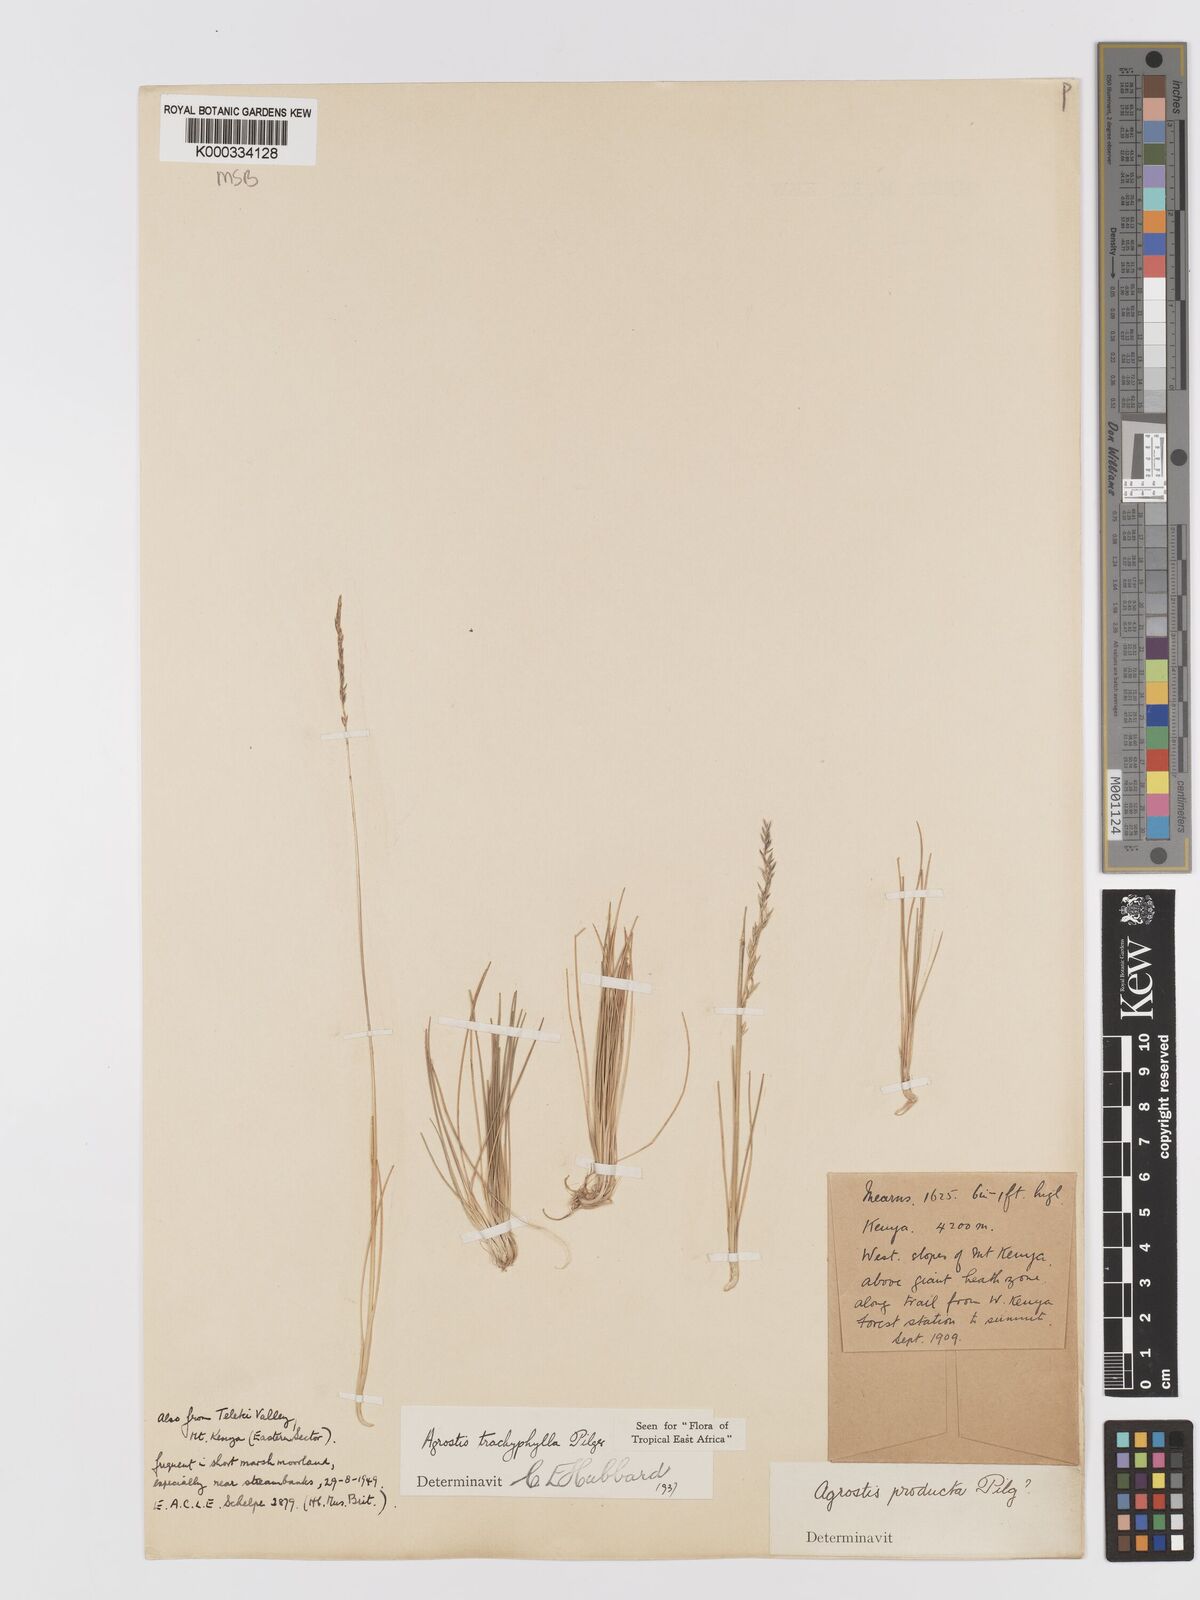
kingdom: Plantae
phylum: Tracheophyta
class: Liliopsida
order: Poales
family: Poaceae
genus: Agrostis
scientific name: Agrostis trachyphylla
